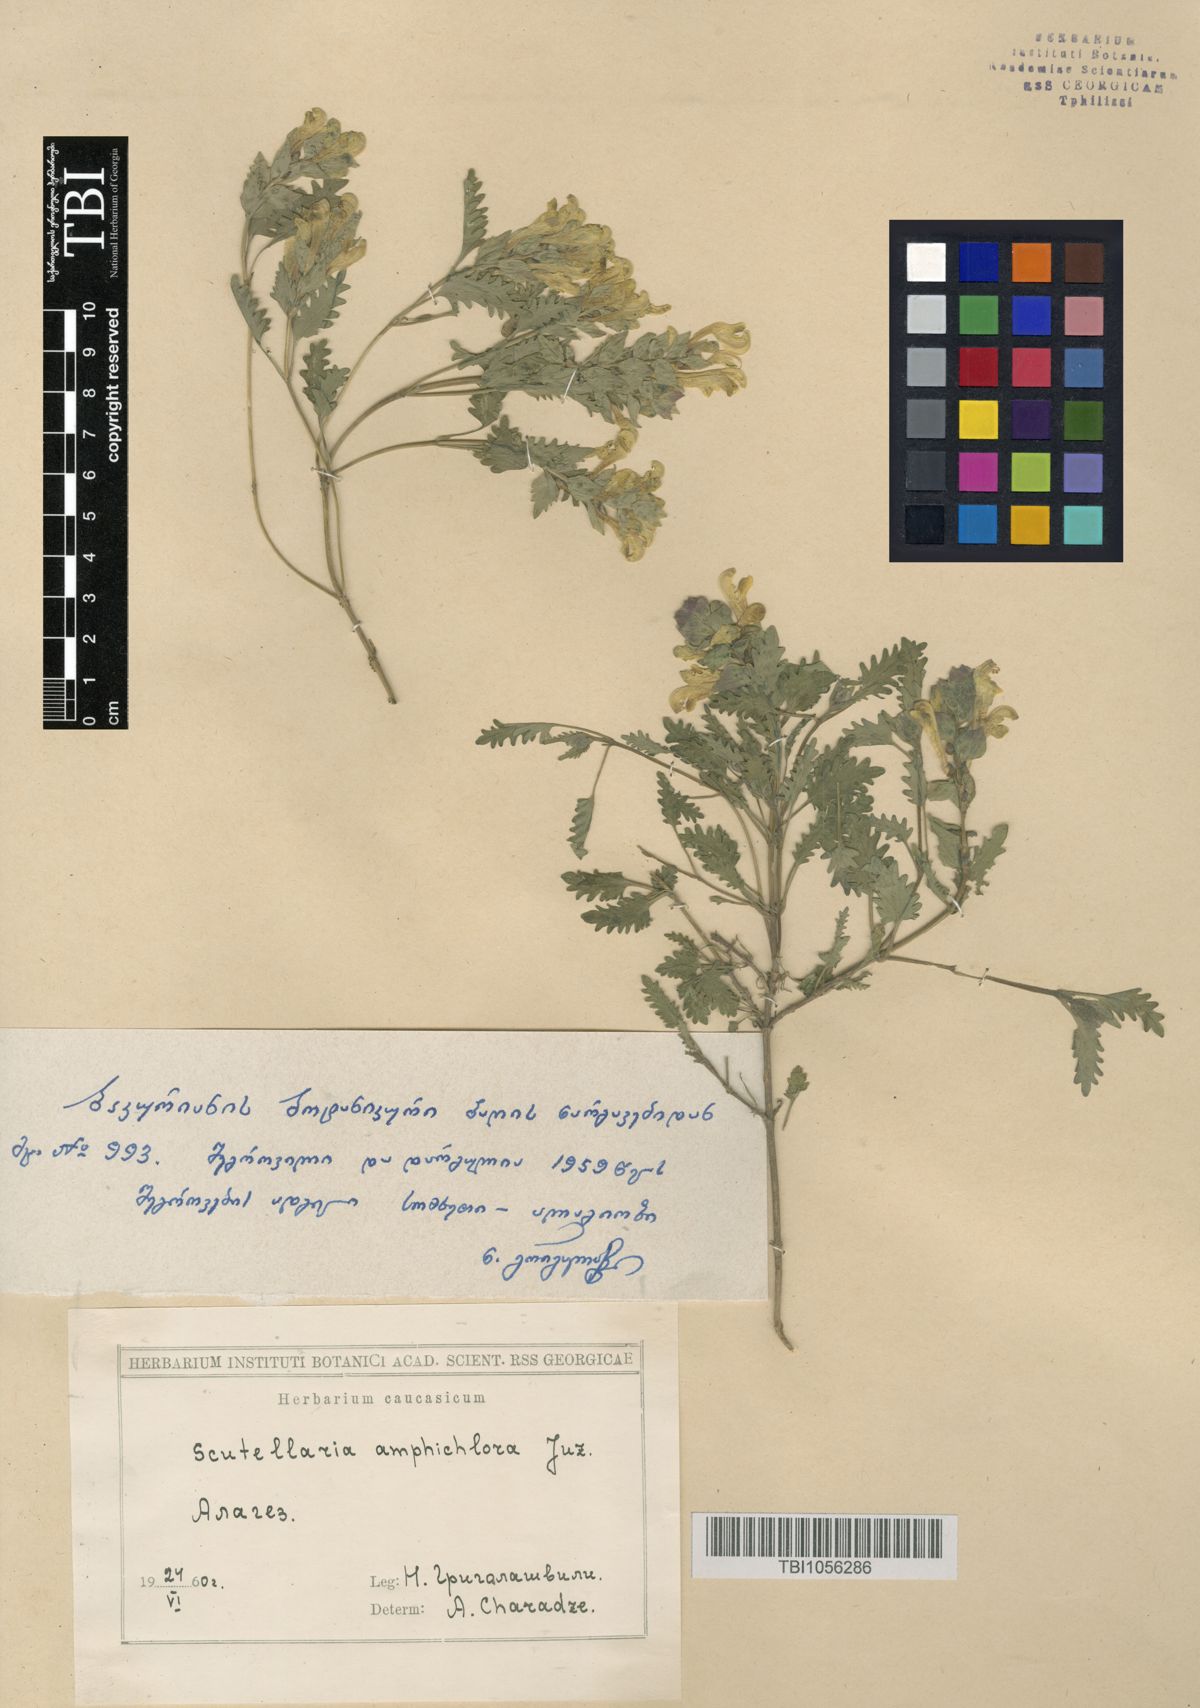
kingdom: Plantae
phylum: Tracheophyta
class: Magnoliopsida
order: Lamiales
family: Lamiaceae
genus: Scutellaria
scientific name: Scutellaria amphichlora
